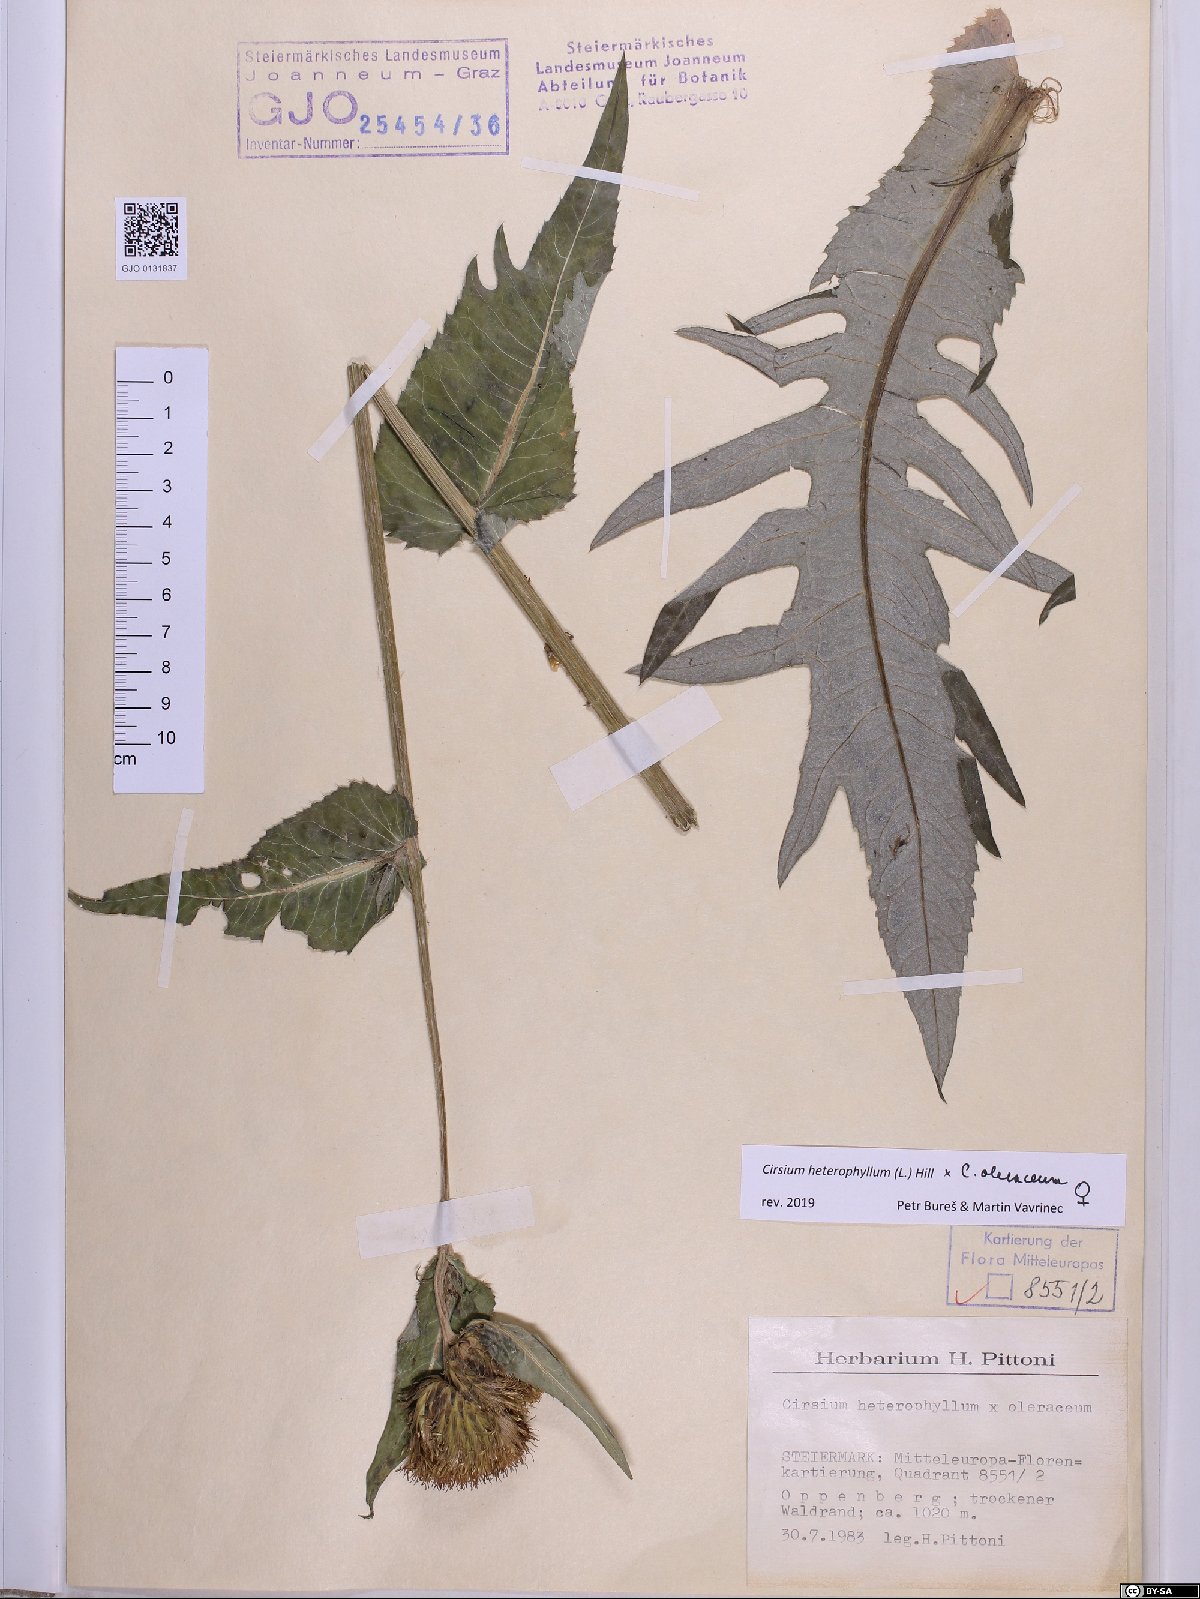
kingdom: Plantae
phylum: Tracheophyta
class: Magnoliopsida
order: Asterales
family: Asteraceae
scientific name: Asteraceae
